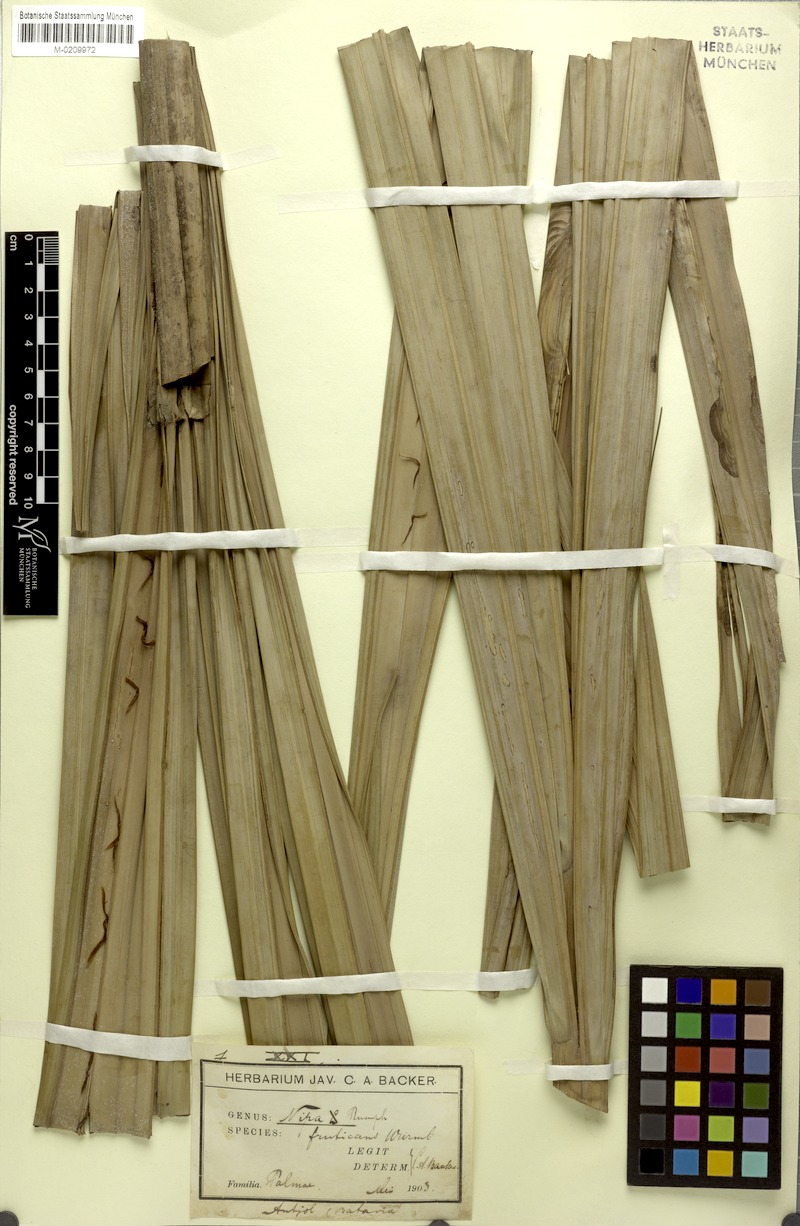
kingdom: Plantae
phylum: Tracheophyta
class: Liliopsida
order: Arecales
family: Arecaceae
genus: Nypa
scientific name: Nypa fruticans
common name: Mangrove palm
